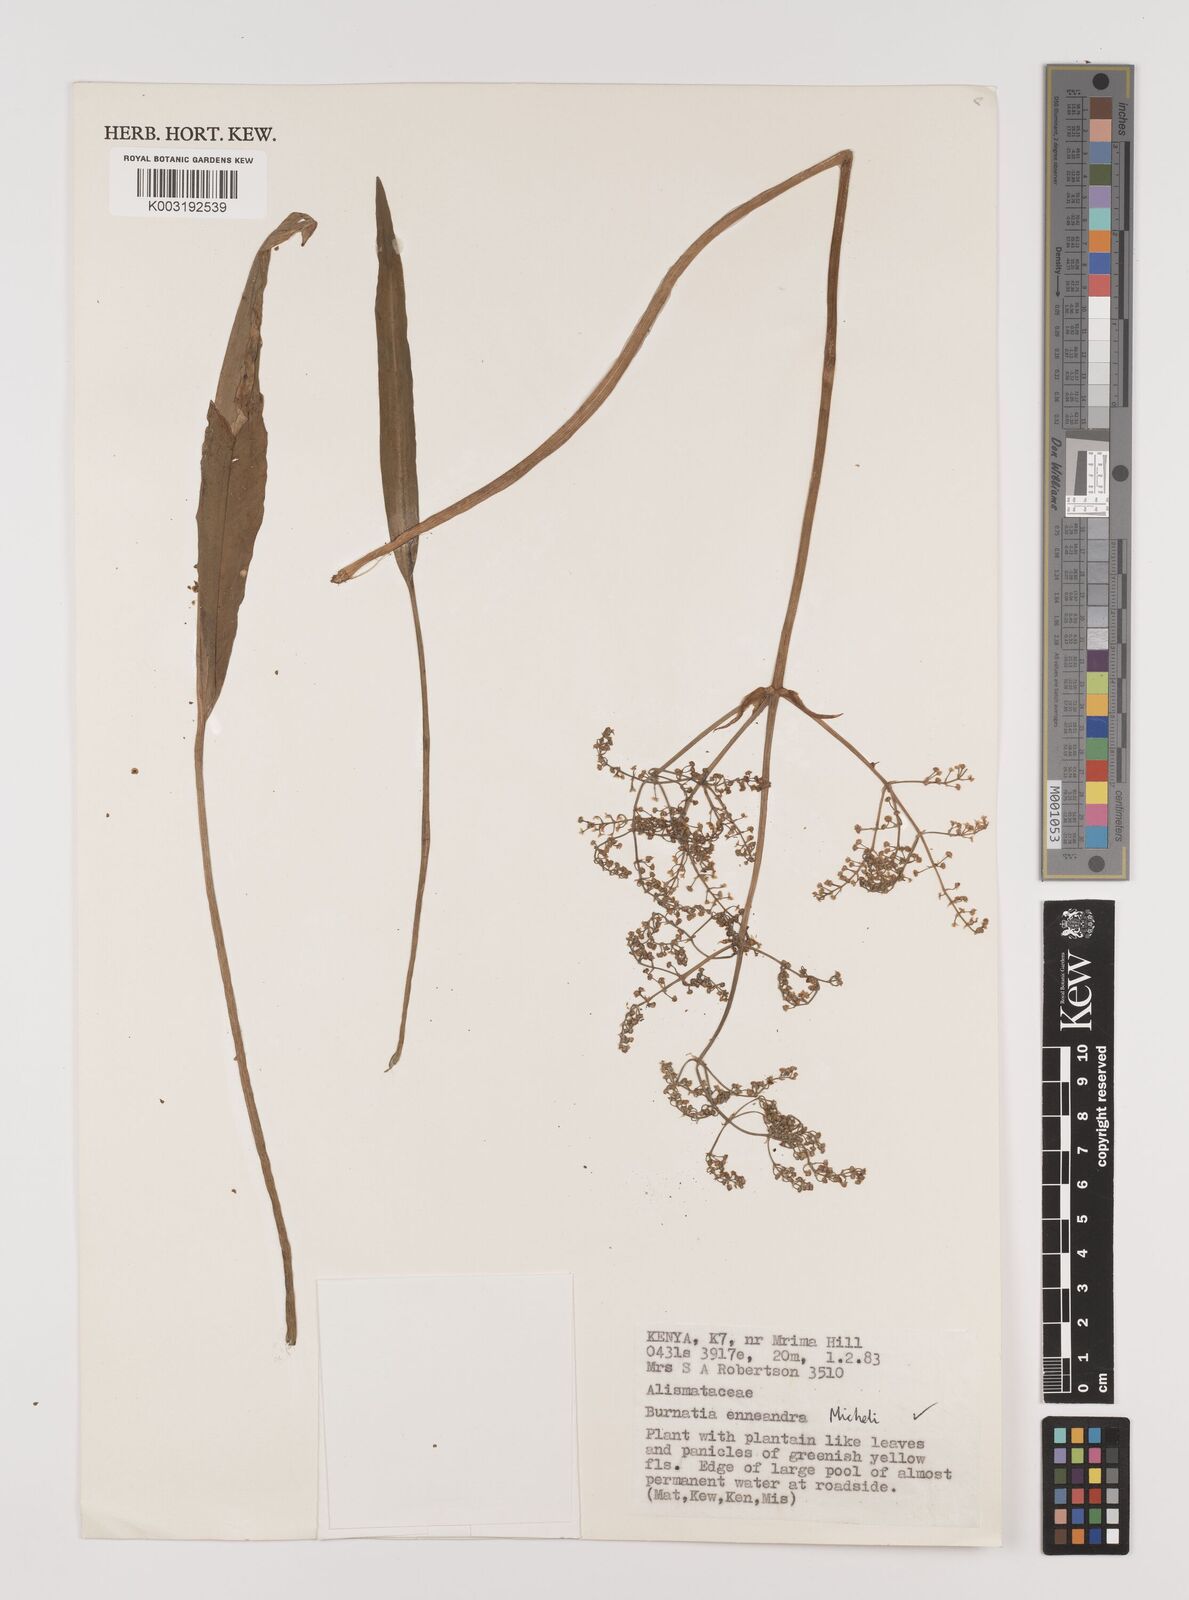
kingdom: Plantae
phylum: Tracheophyta
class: Liliopsida
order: Alismatales
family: Alismataceae
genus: Burnatia
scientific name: Burnatia enneandra
